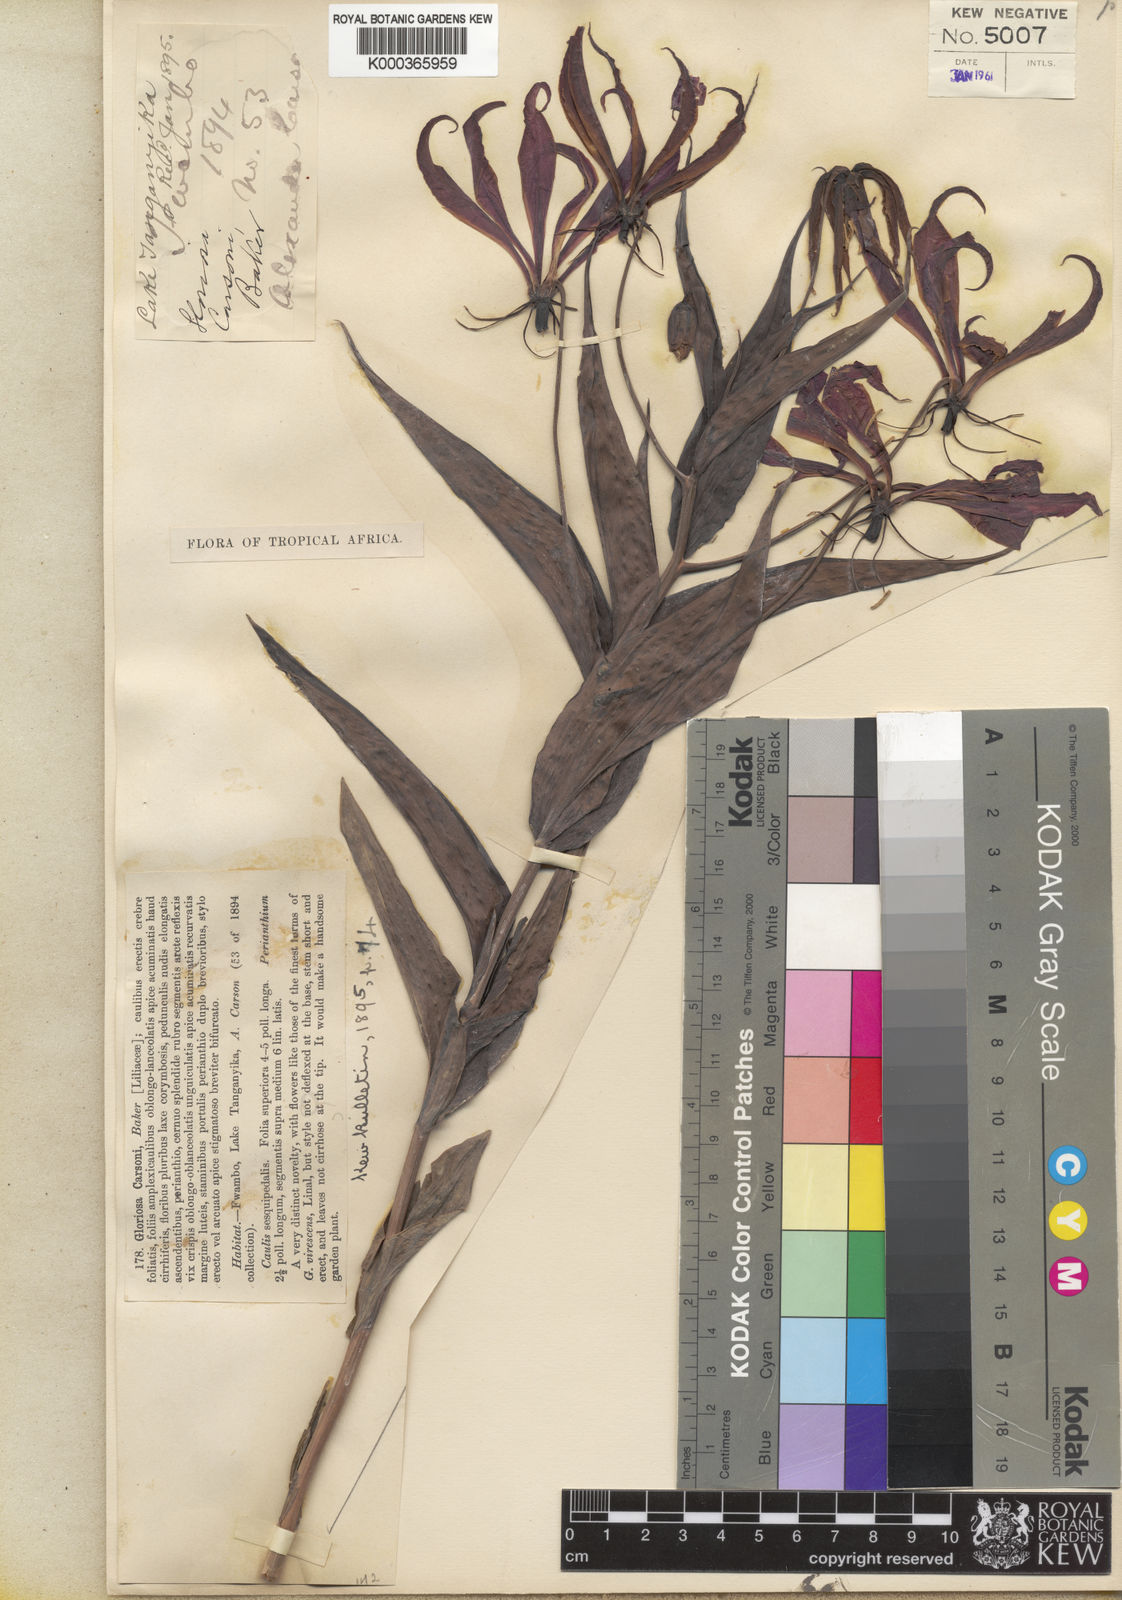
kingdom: Plantae
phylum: Tracheophyta
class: Liliopsida
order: Liliales
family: Colchicaceae
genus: Gloriosa
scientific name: Gloriosa carsonii
